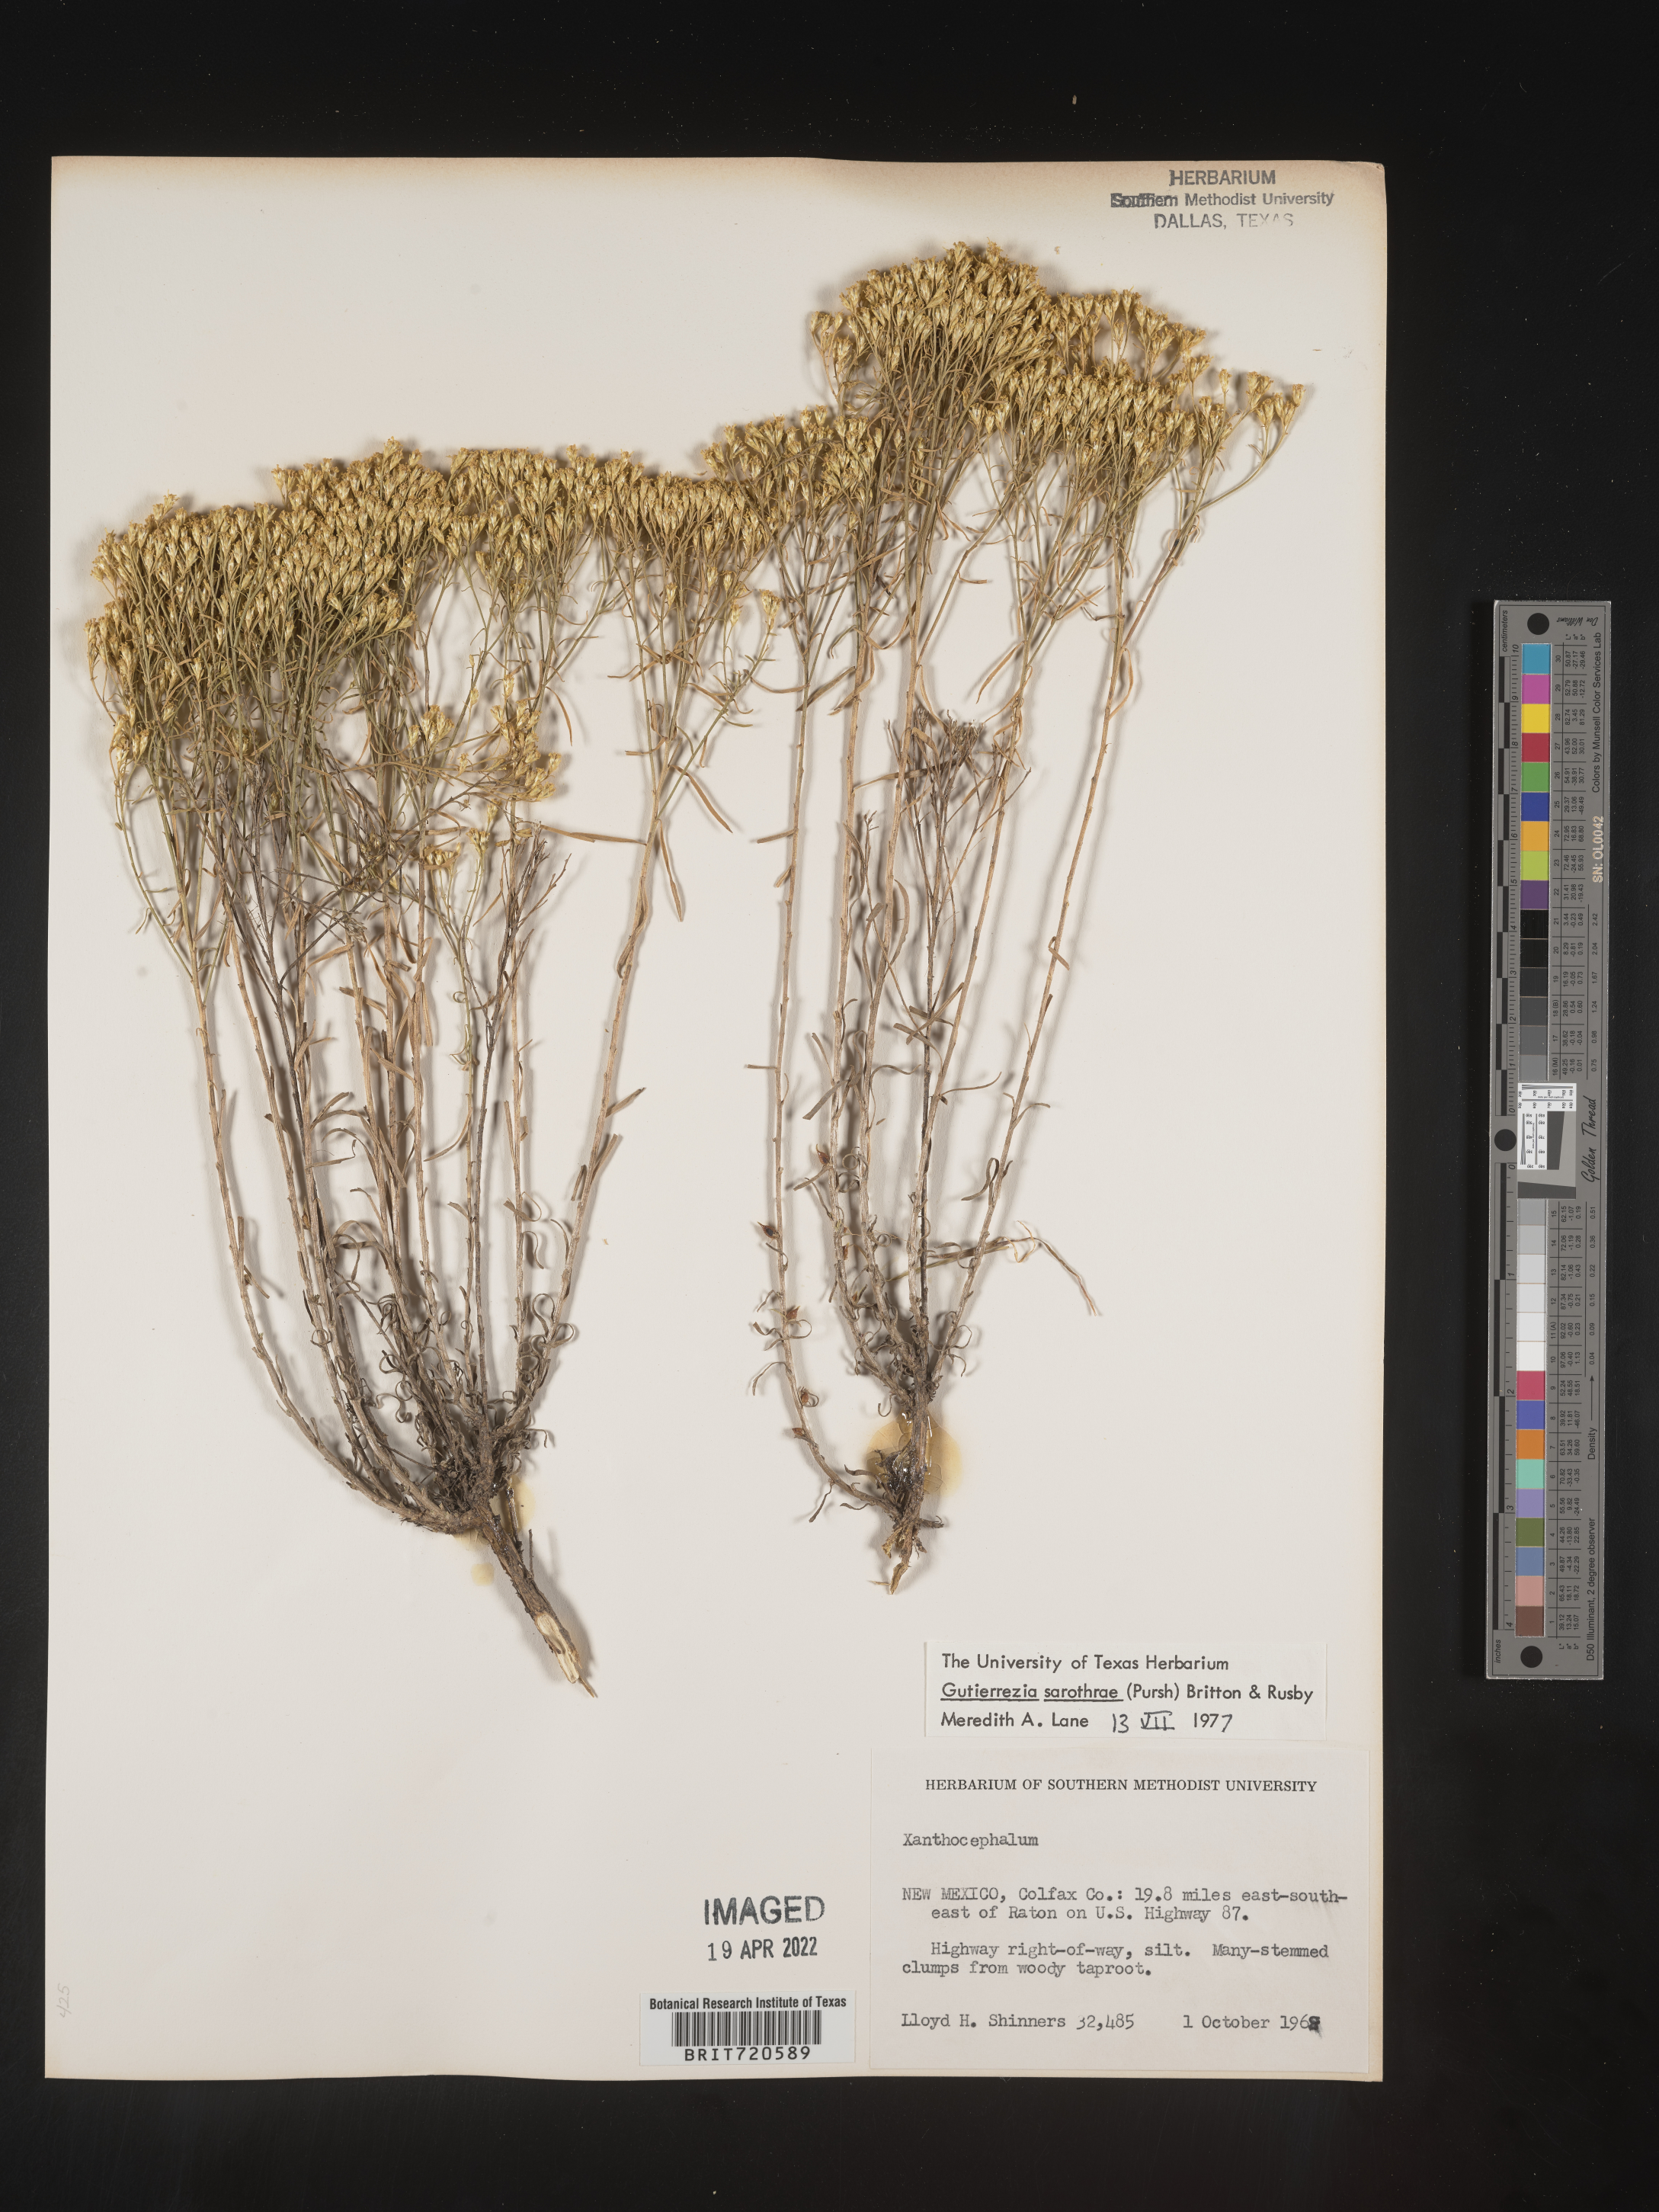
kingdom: Plantae
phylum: Tracheophyta
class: Magnoliopsida
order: Asterales
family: Asteraceae
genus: Gutierrezia
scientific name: Gutierrezia sarothrae
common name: Broom snakeweed
